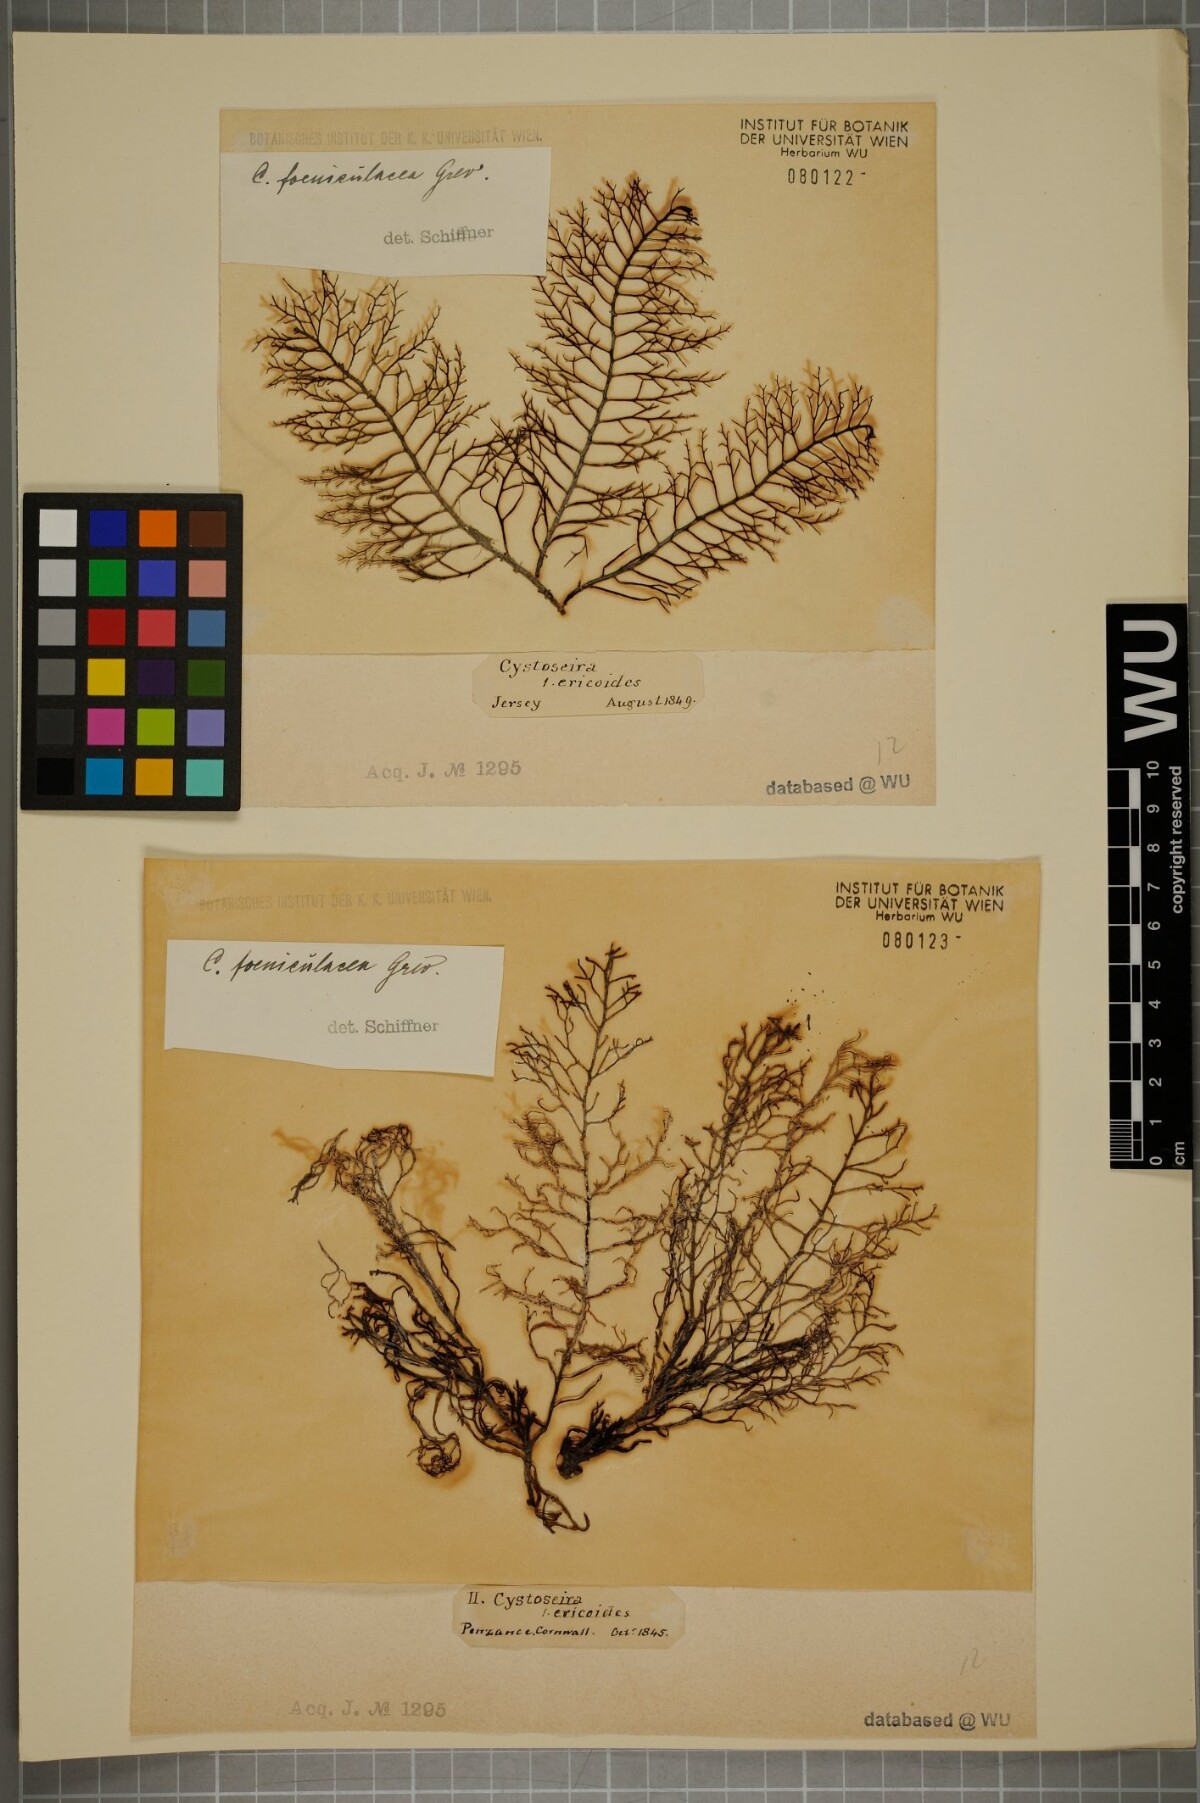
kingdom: Chromista
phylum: Ochrophyta
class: Phaeophyceae
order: Fucales
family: Sargassaceae
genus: Cystoseira
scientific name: Cystoseira Ericaria selaginoides
